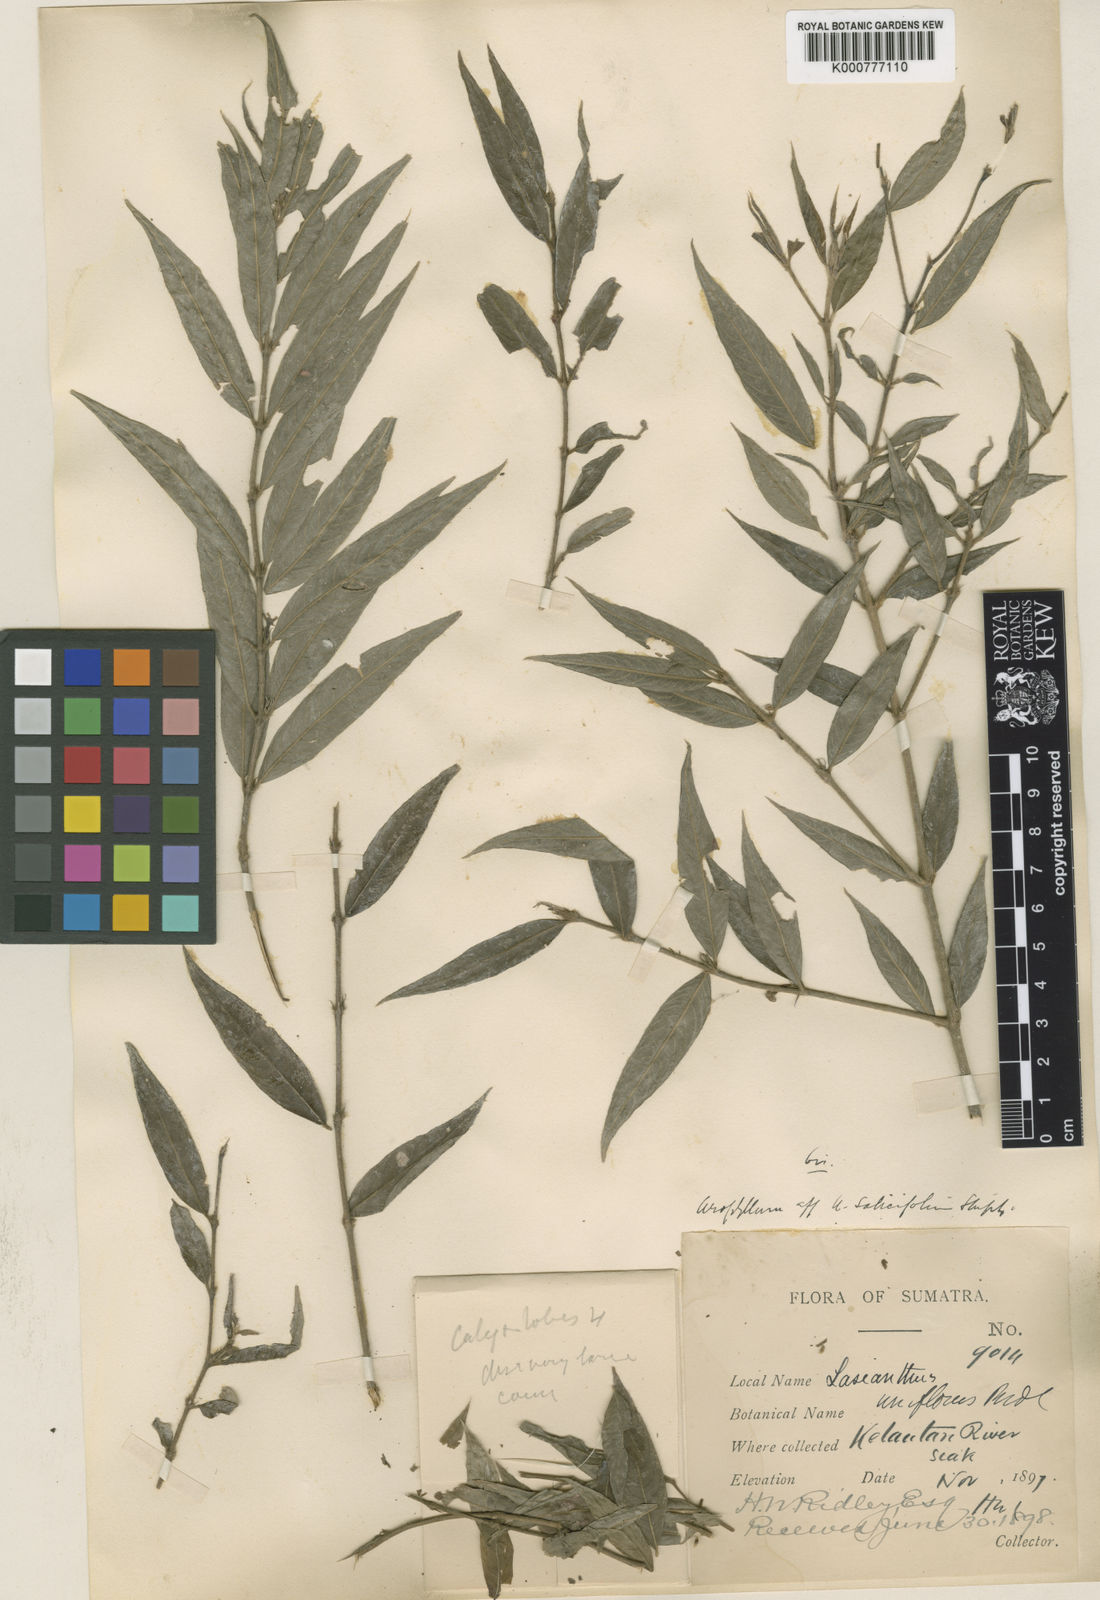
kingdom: Plantae
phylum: Tracheophyta
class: Magnoliopsida
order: Gentianales
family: Rubiaceae
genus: Urophyllum
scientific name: Urophyllum salicifolium
